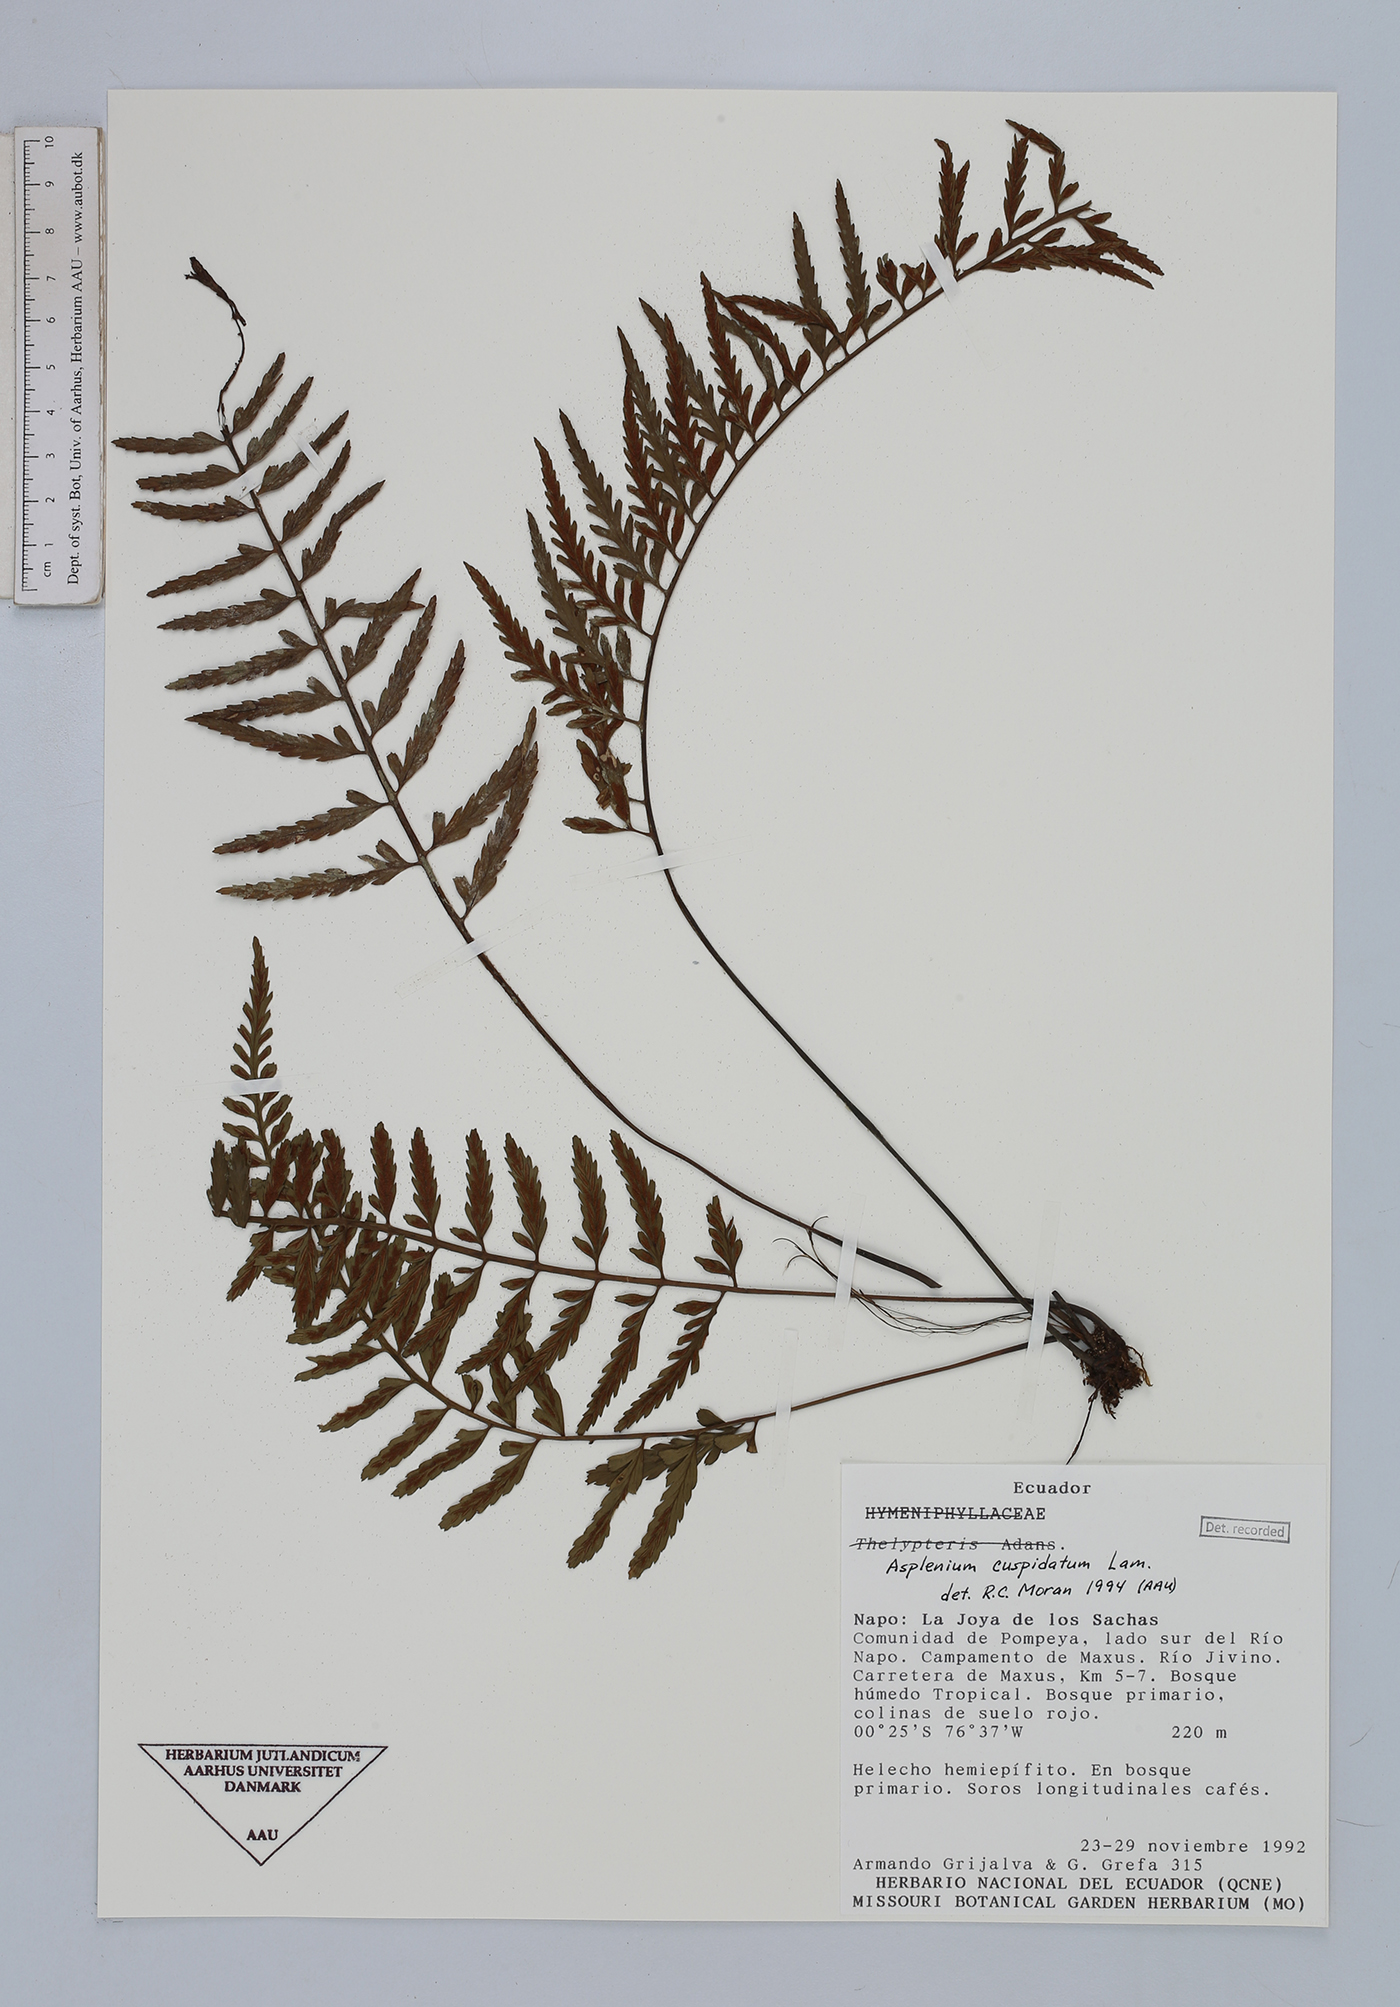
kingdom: Plantae
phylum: Tracheophyta
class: Polypodiopsida
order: Polypodiales
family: Aspleniaceae
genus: Asplenium
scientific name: Asplenium cuspidatum
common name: Eared spleenwort
